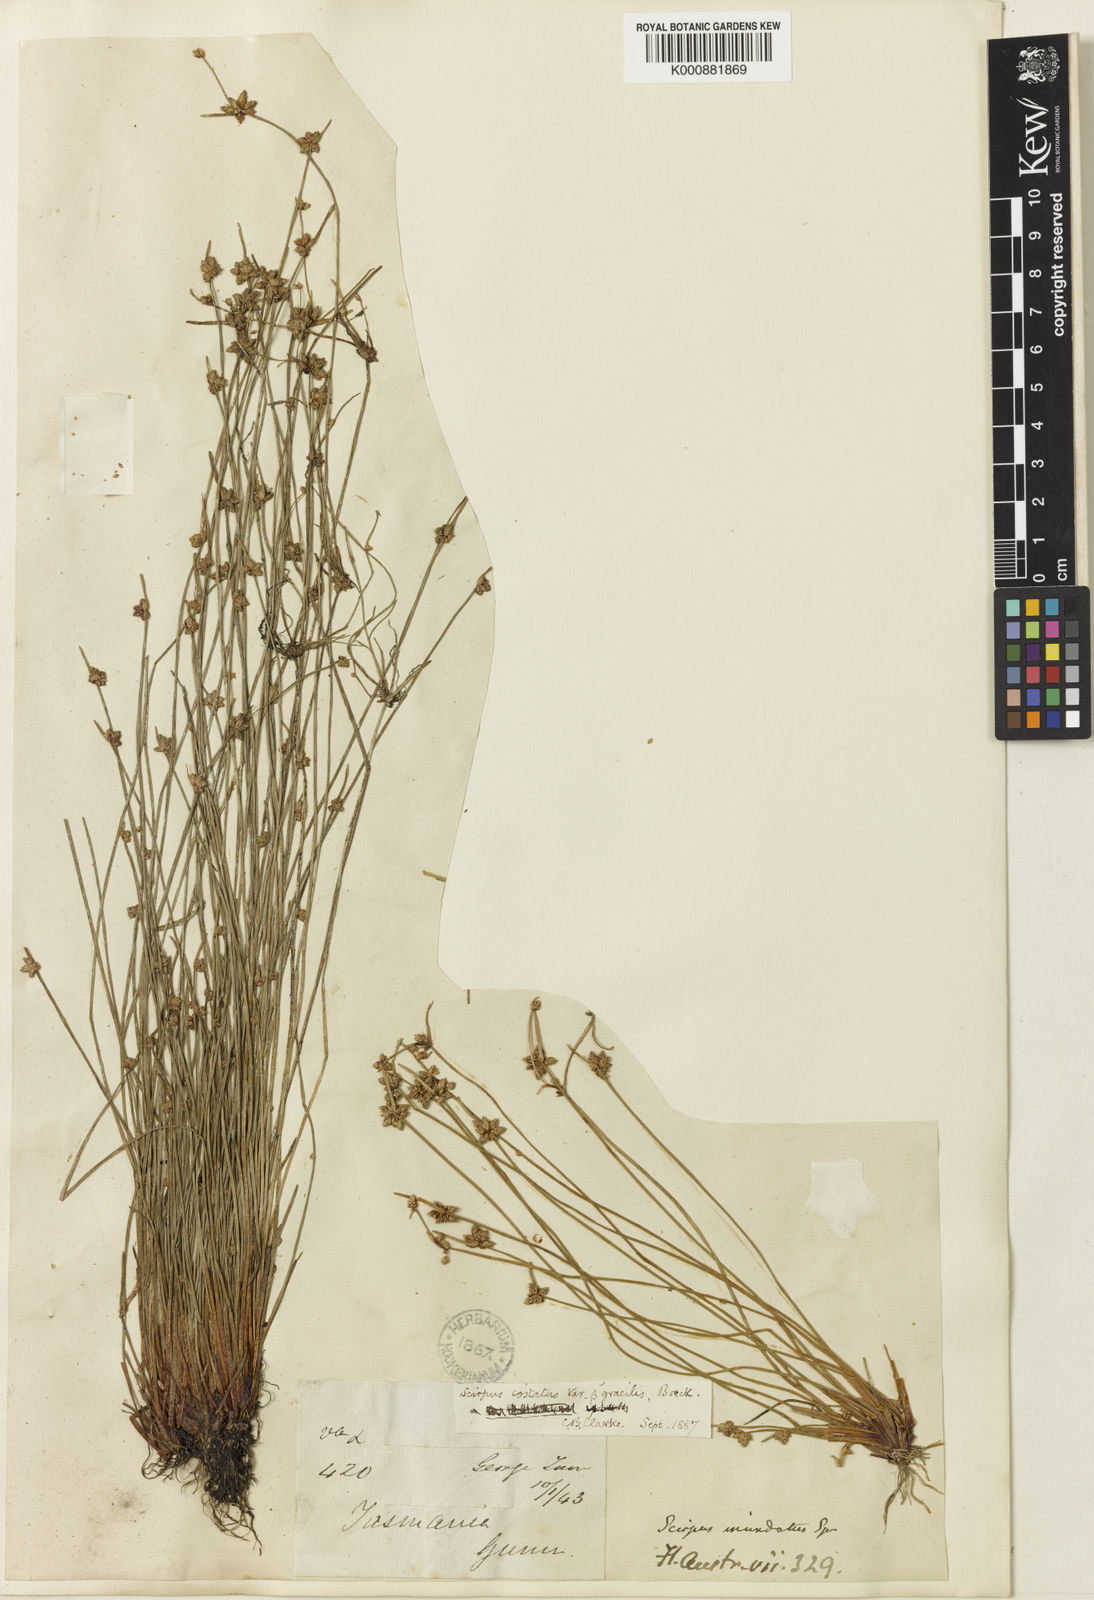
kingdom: Plantae
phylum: Tracheophyta
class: Liliopsida
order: Poales
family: Cyperaceae
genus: Isolepis
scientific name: Isolepis costata
